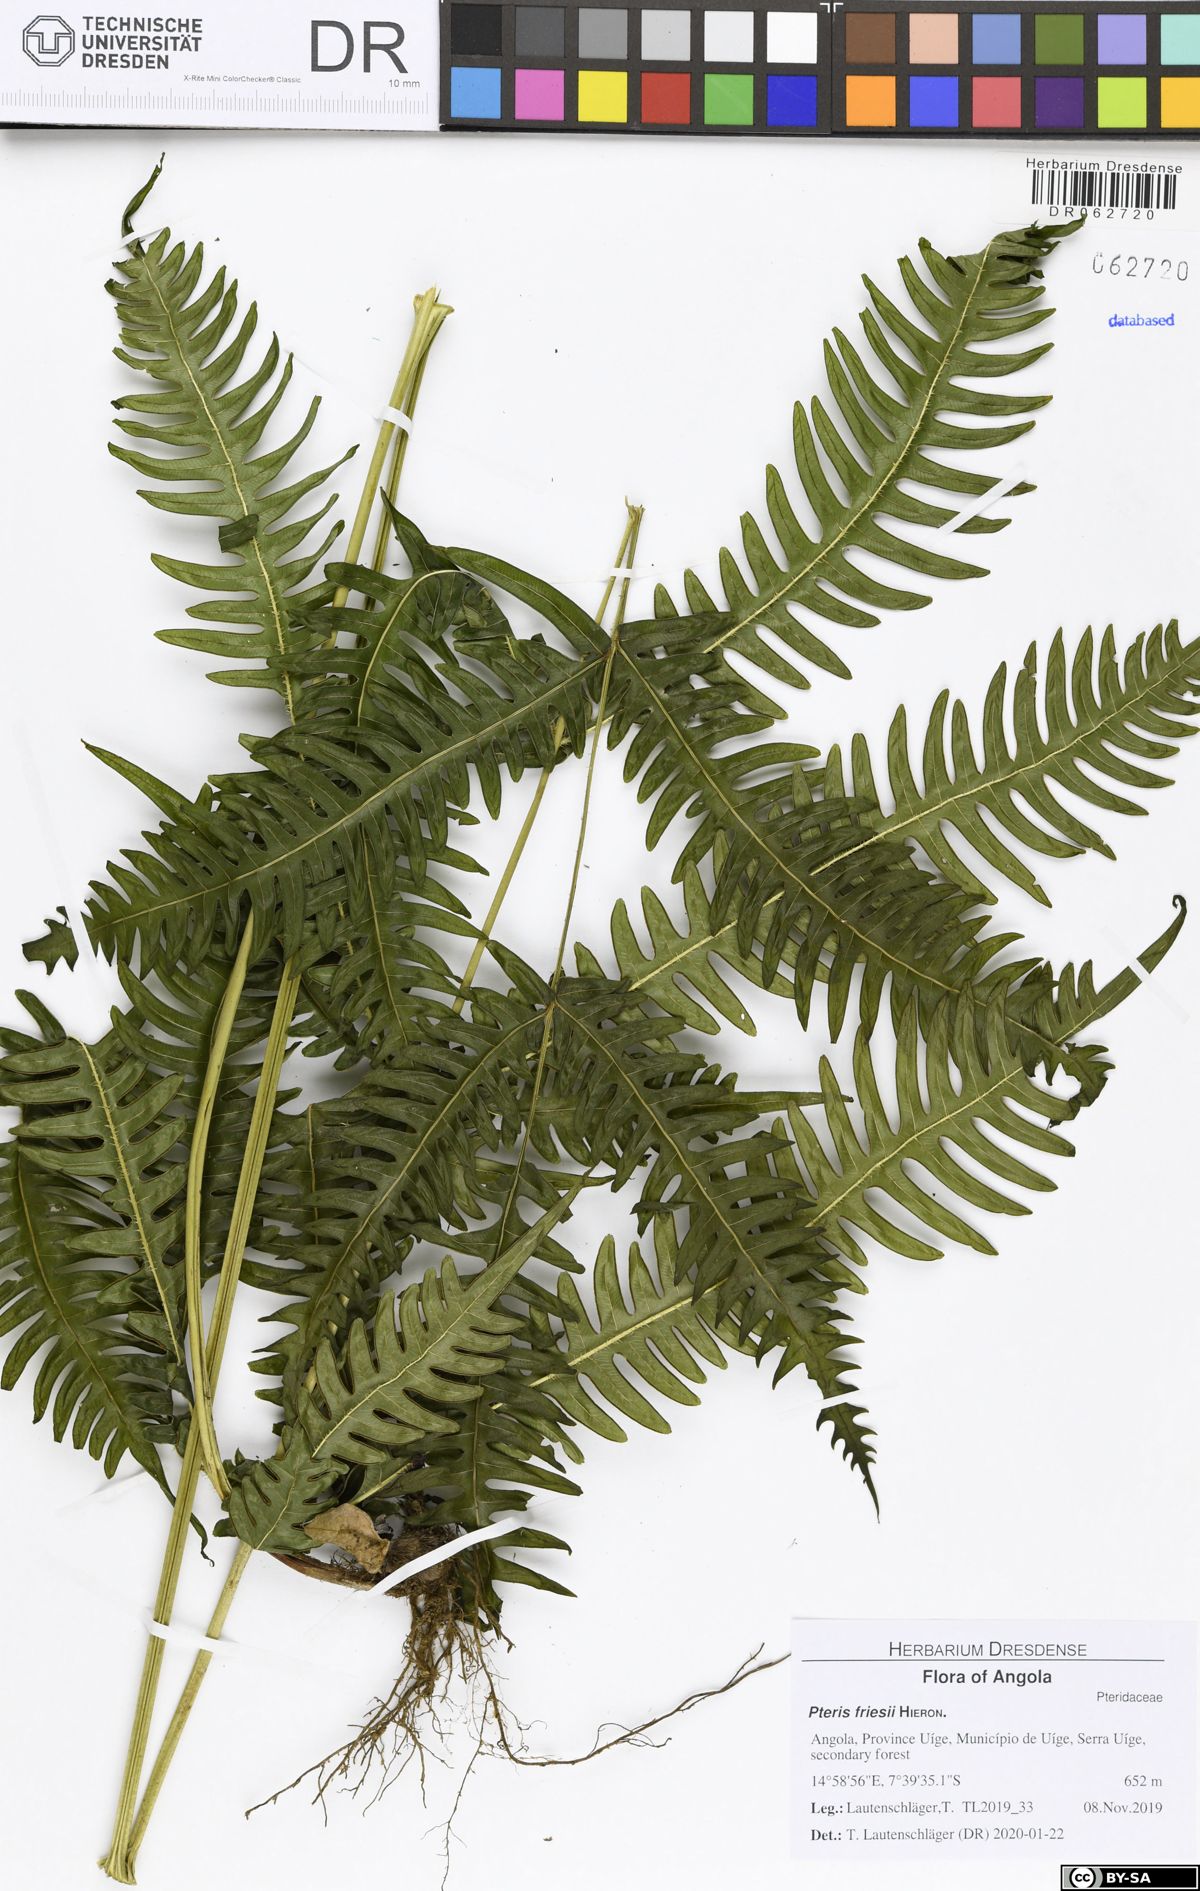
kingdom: Plantae
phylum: Tracheophyta
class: Polypodiopsida
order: Polypodiales
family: Pteridaceae
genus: Pteris
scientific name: Pteris friesii
